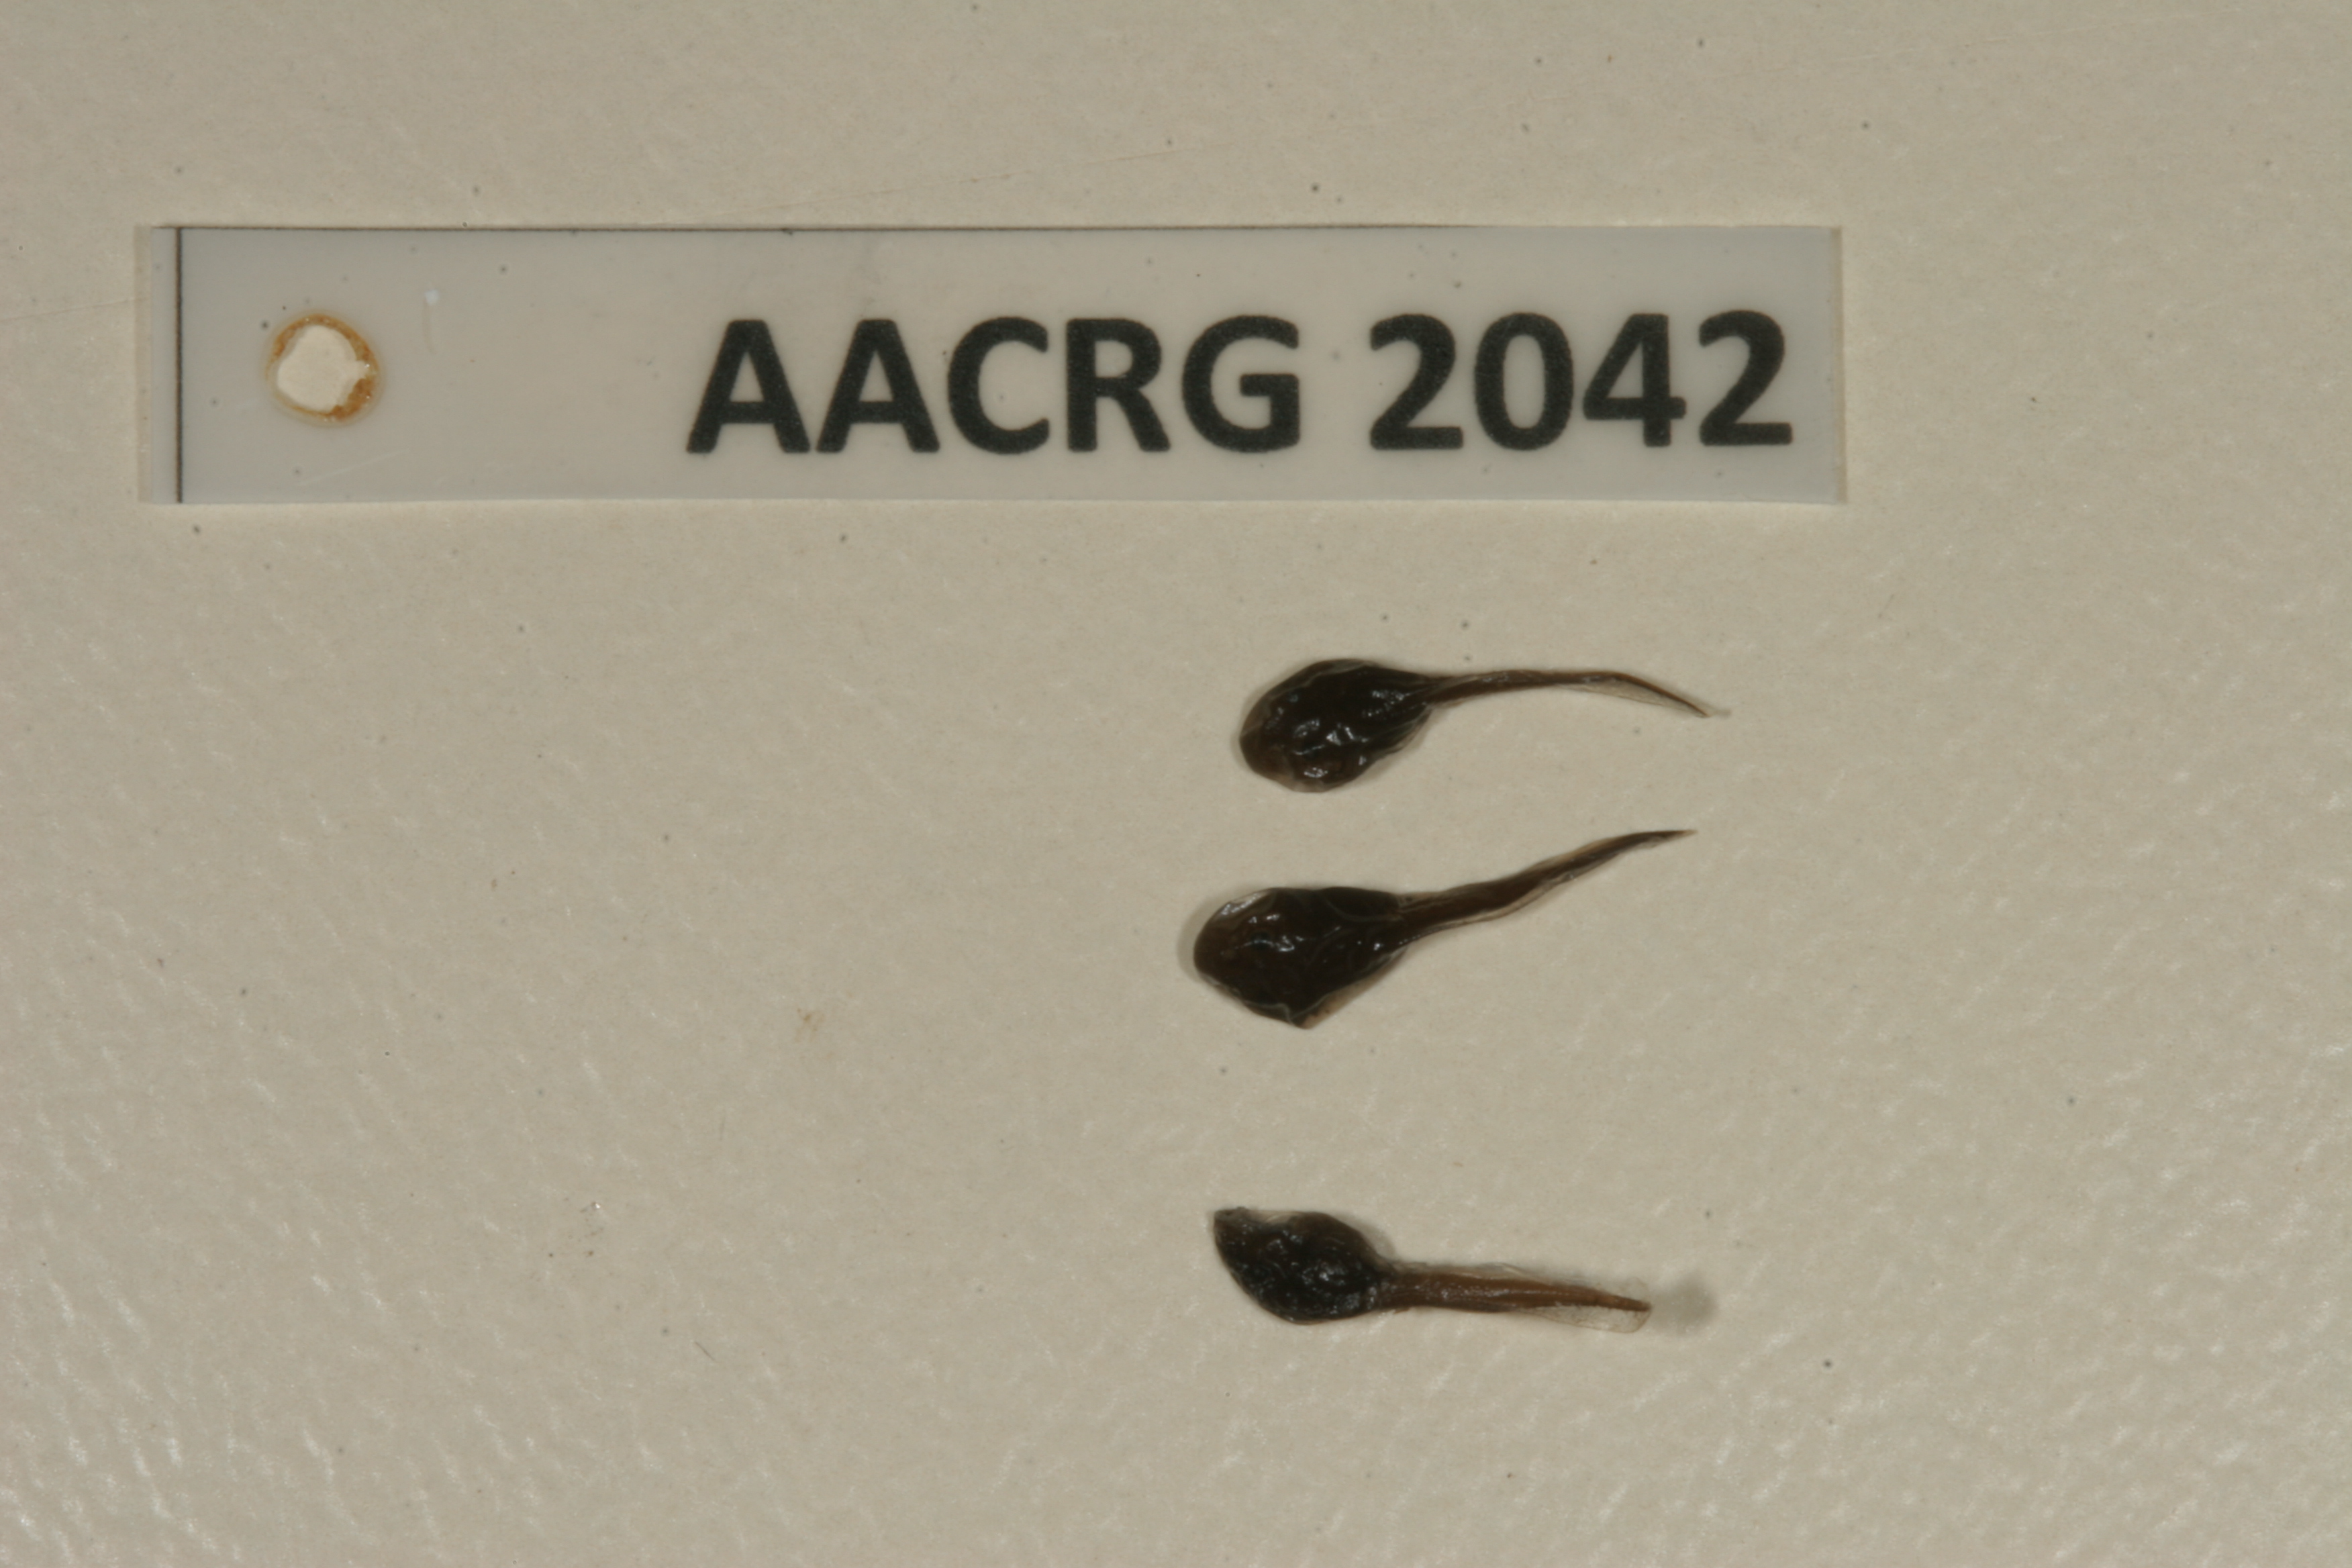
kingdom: Animalia
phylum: Chordata
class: Amphibia
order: Anura
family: Bufonidae
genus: Sclerophrys
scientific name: Sclerophrys gutturalis
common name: African common toad
